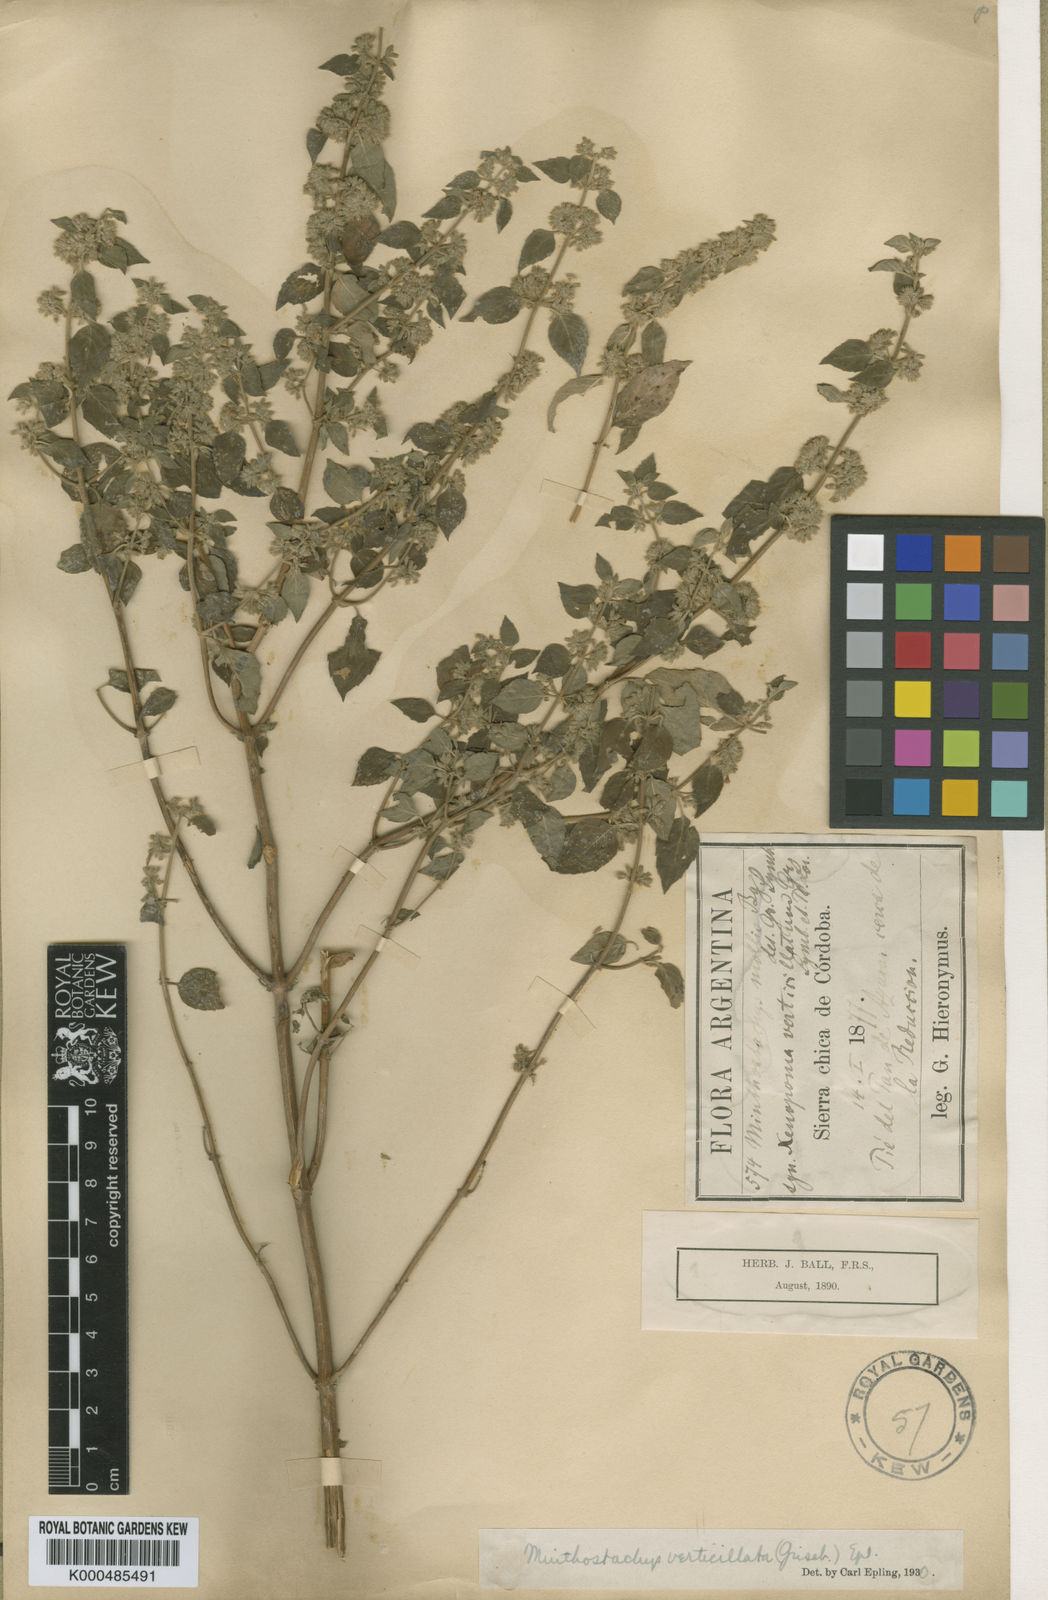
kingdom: Plantae
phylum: Tracheophyta
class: Magnoliopsida
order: Lamiales
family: Lamiaceae
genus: Minthostachys
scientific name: Minthostachys verticillata
